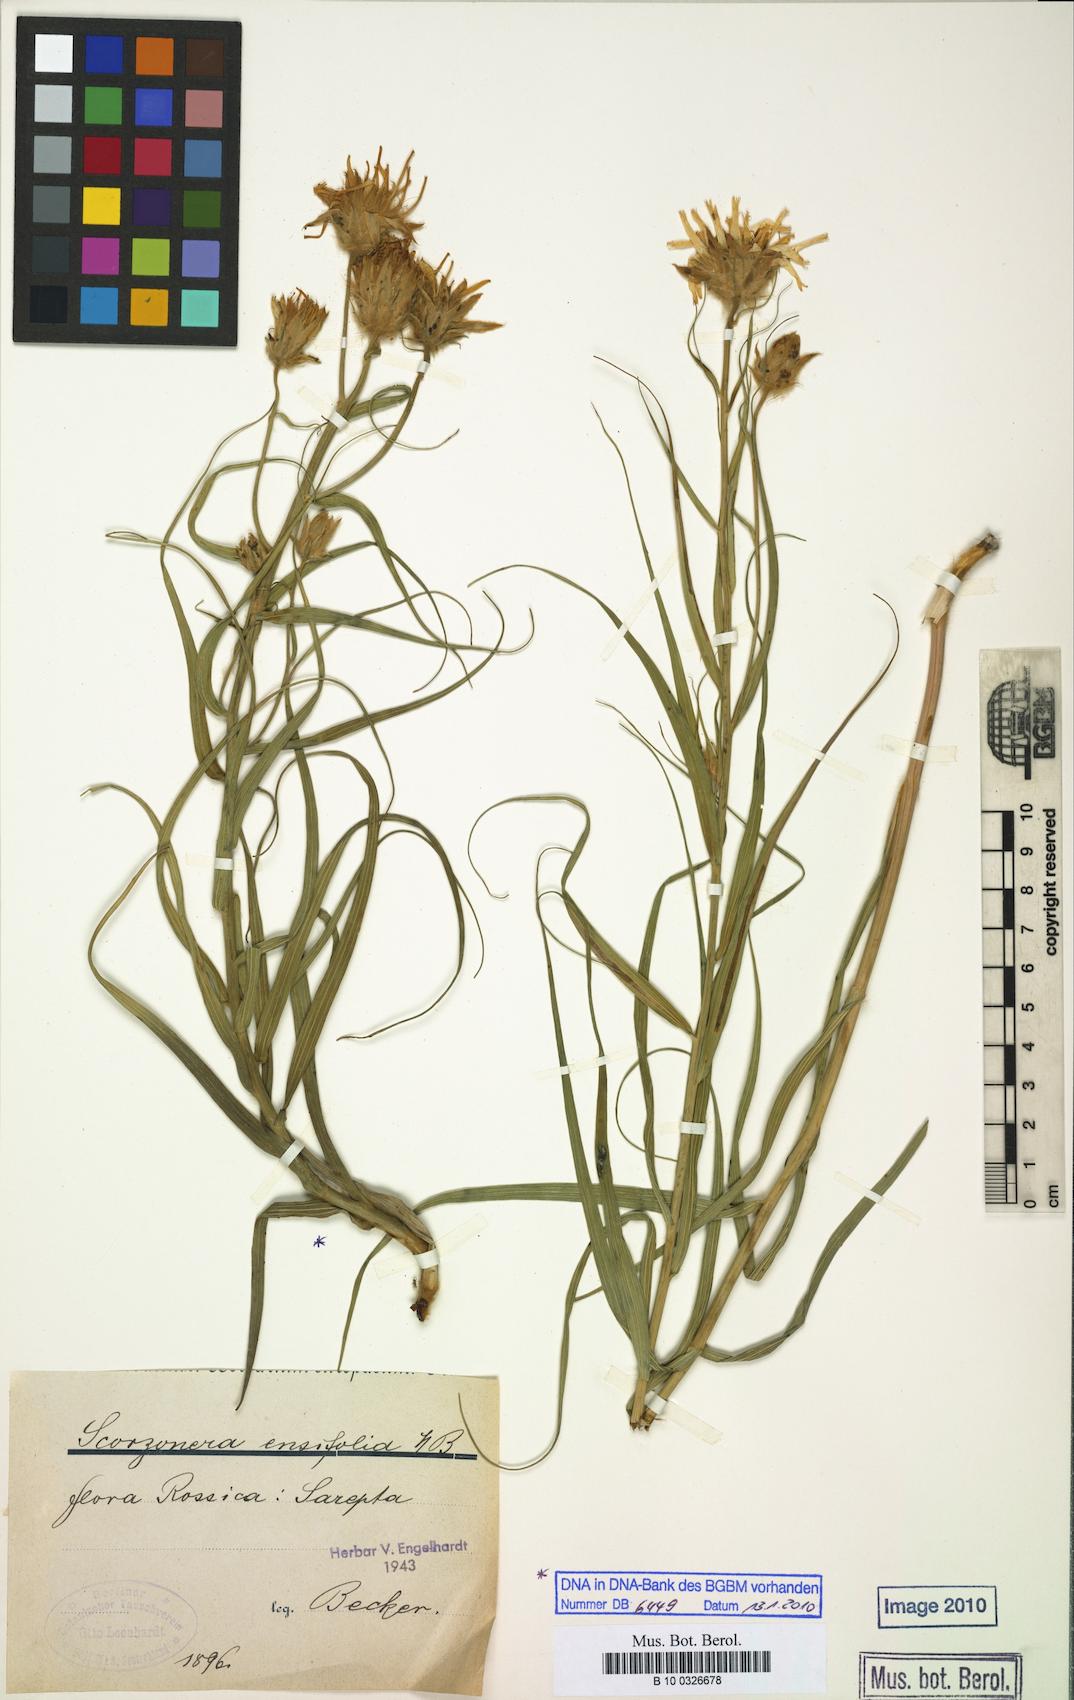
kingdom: Plantae
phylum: Tracheophyta
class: Magnoliopsida
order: Asterales
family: Asteraceae
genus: Gelasia
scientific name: Gelasia ensifolia
